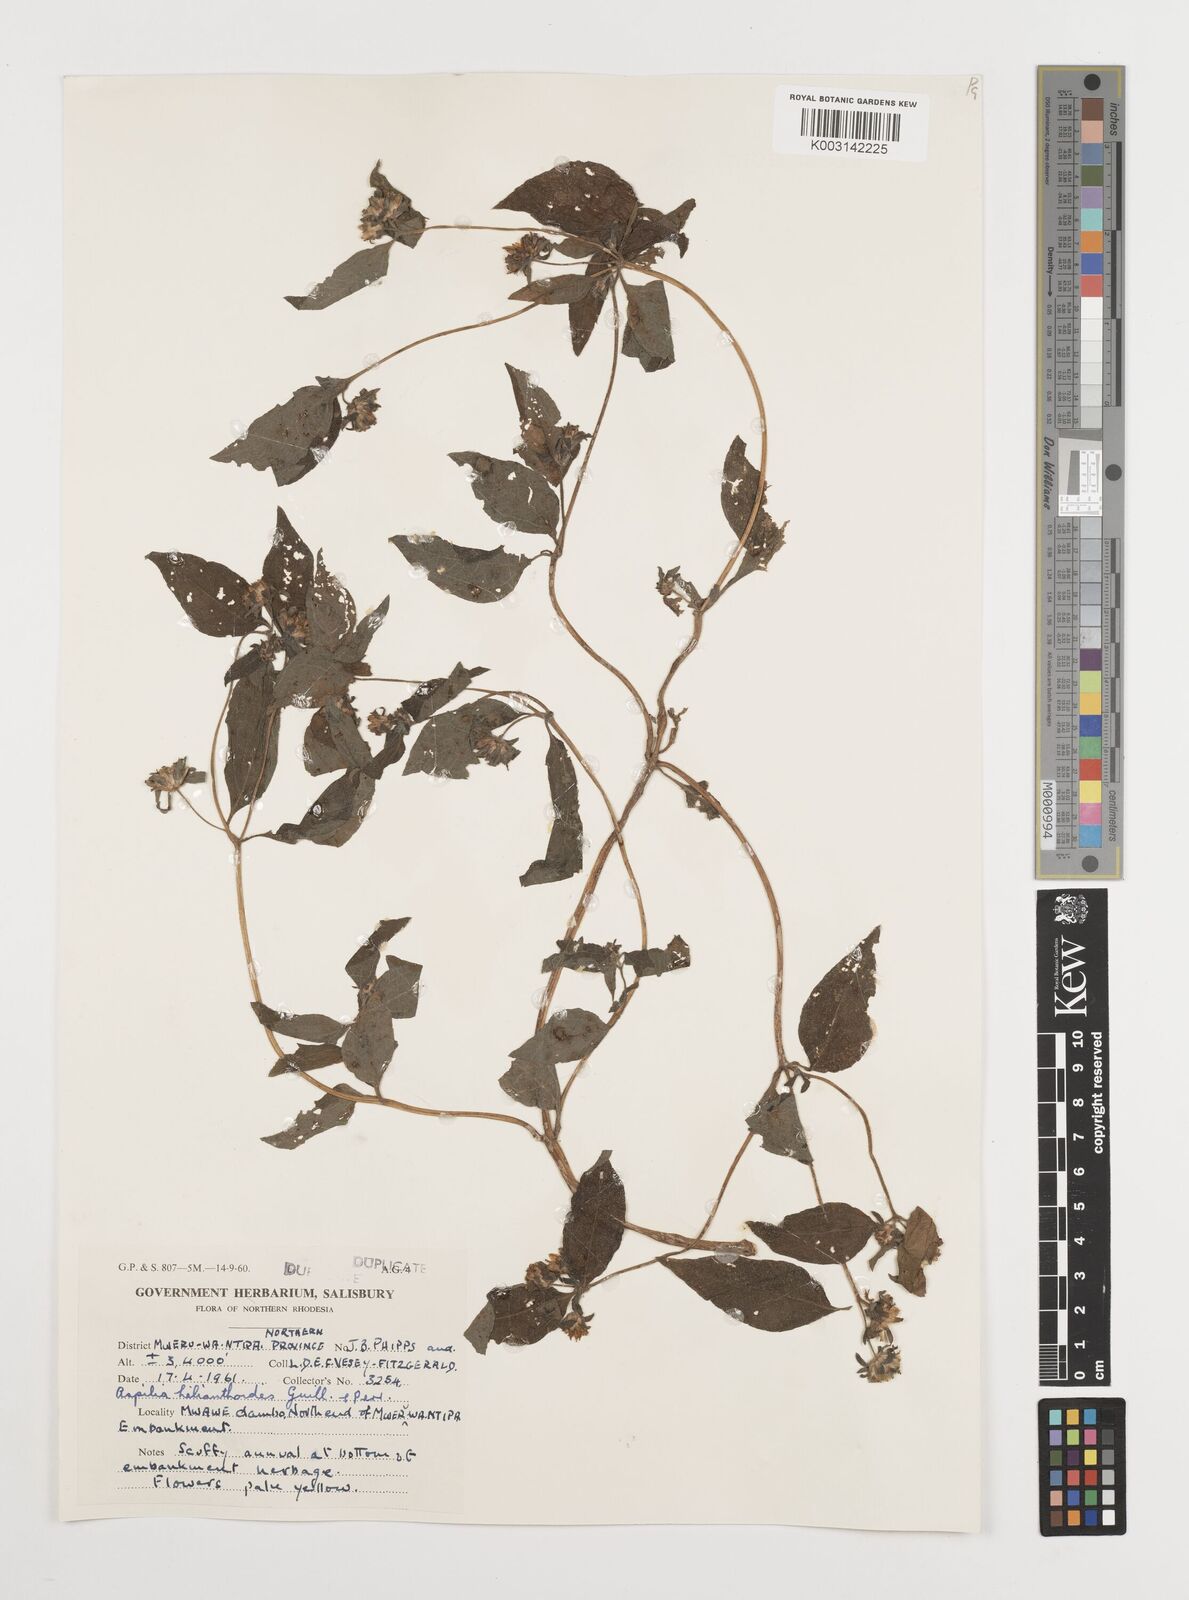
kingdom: Plantae
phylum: Tracheophyta
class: Magnoliopsida
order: Asterales
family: Asteraceae
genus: Aspilia
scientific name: Aspilia ciliata
